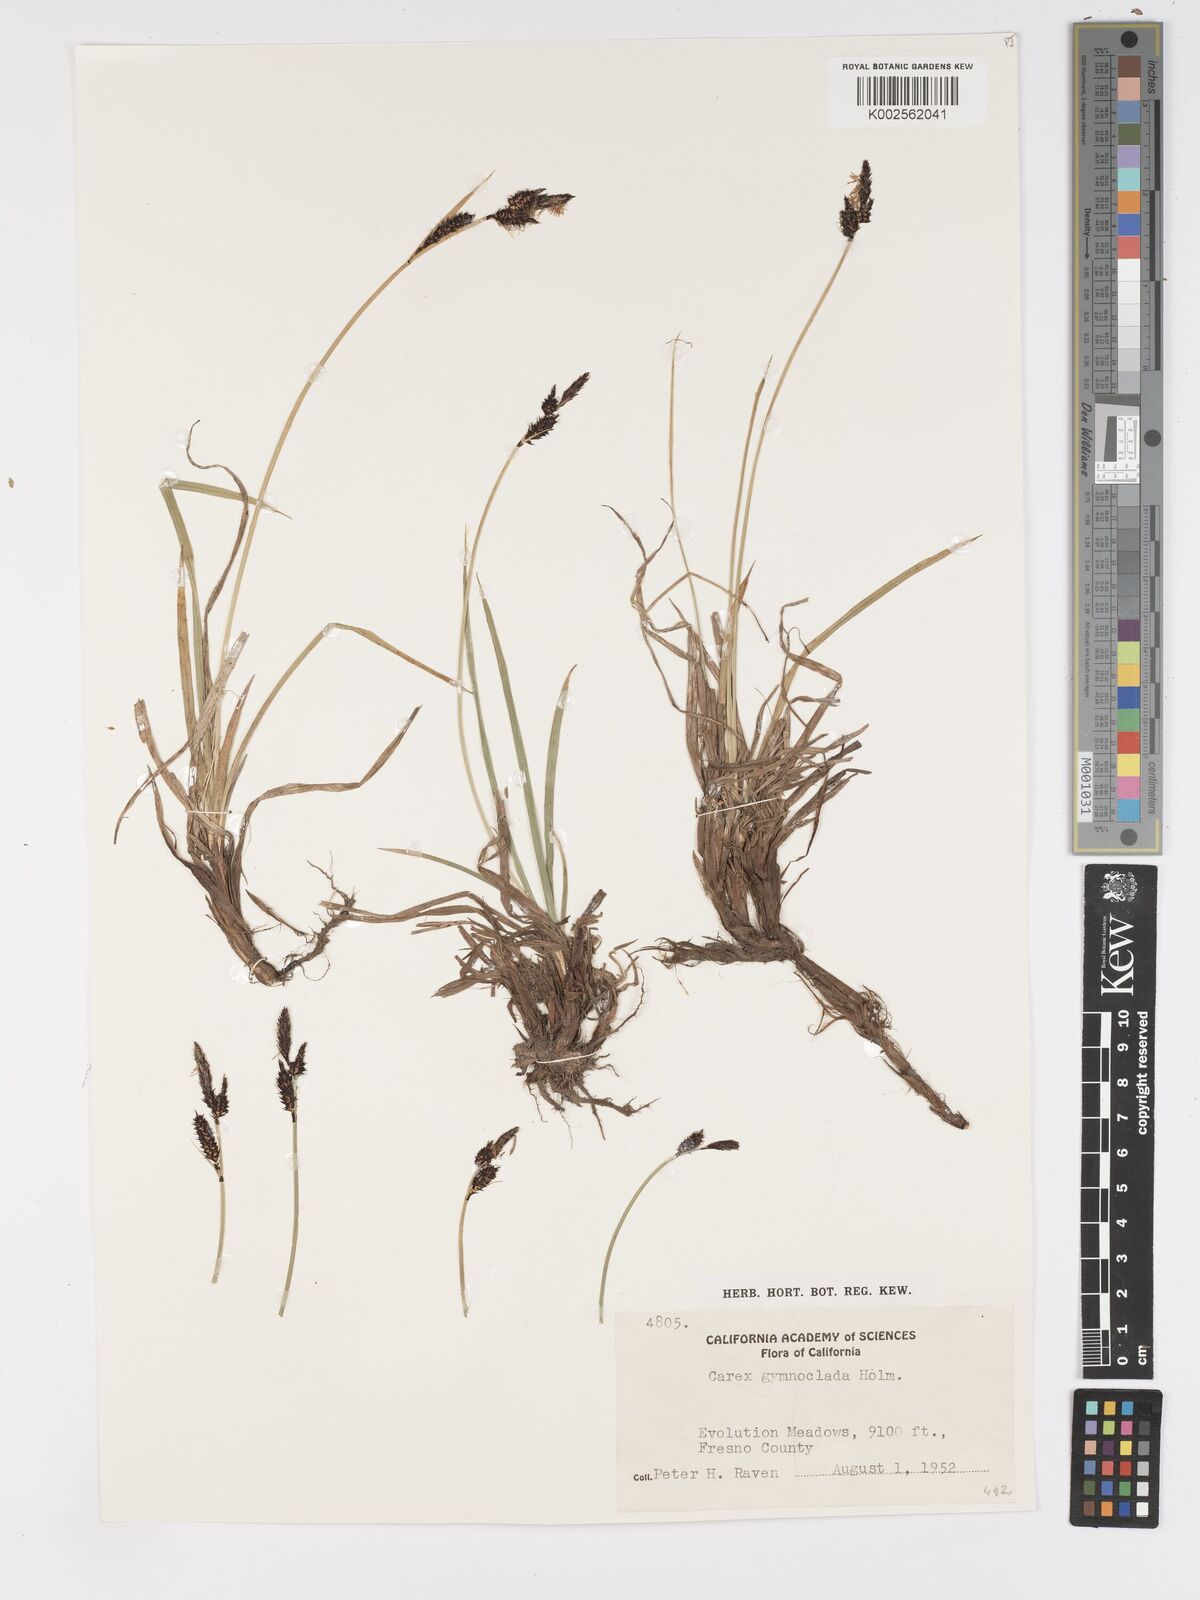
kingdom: Plantae
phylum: Tracheophyta
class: Liliopsida
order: Poales
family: Cyperaceae
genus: Carex
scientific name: Carex scopulorum
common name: Holm's rocky mountain sedge
